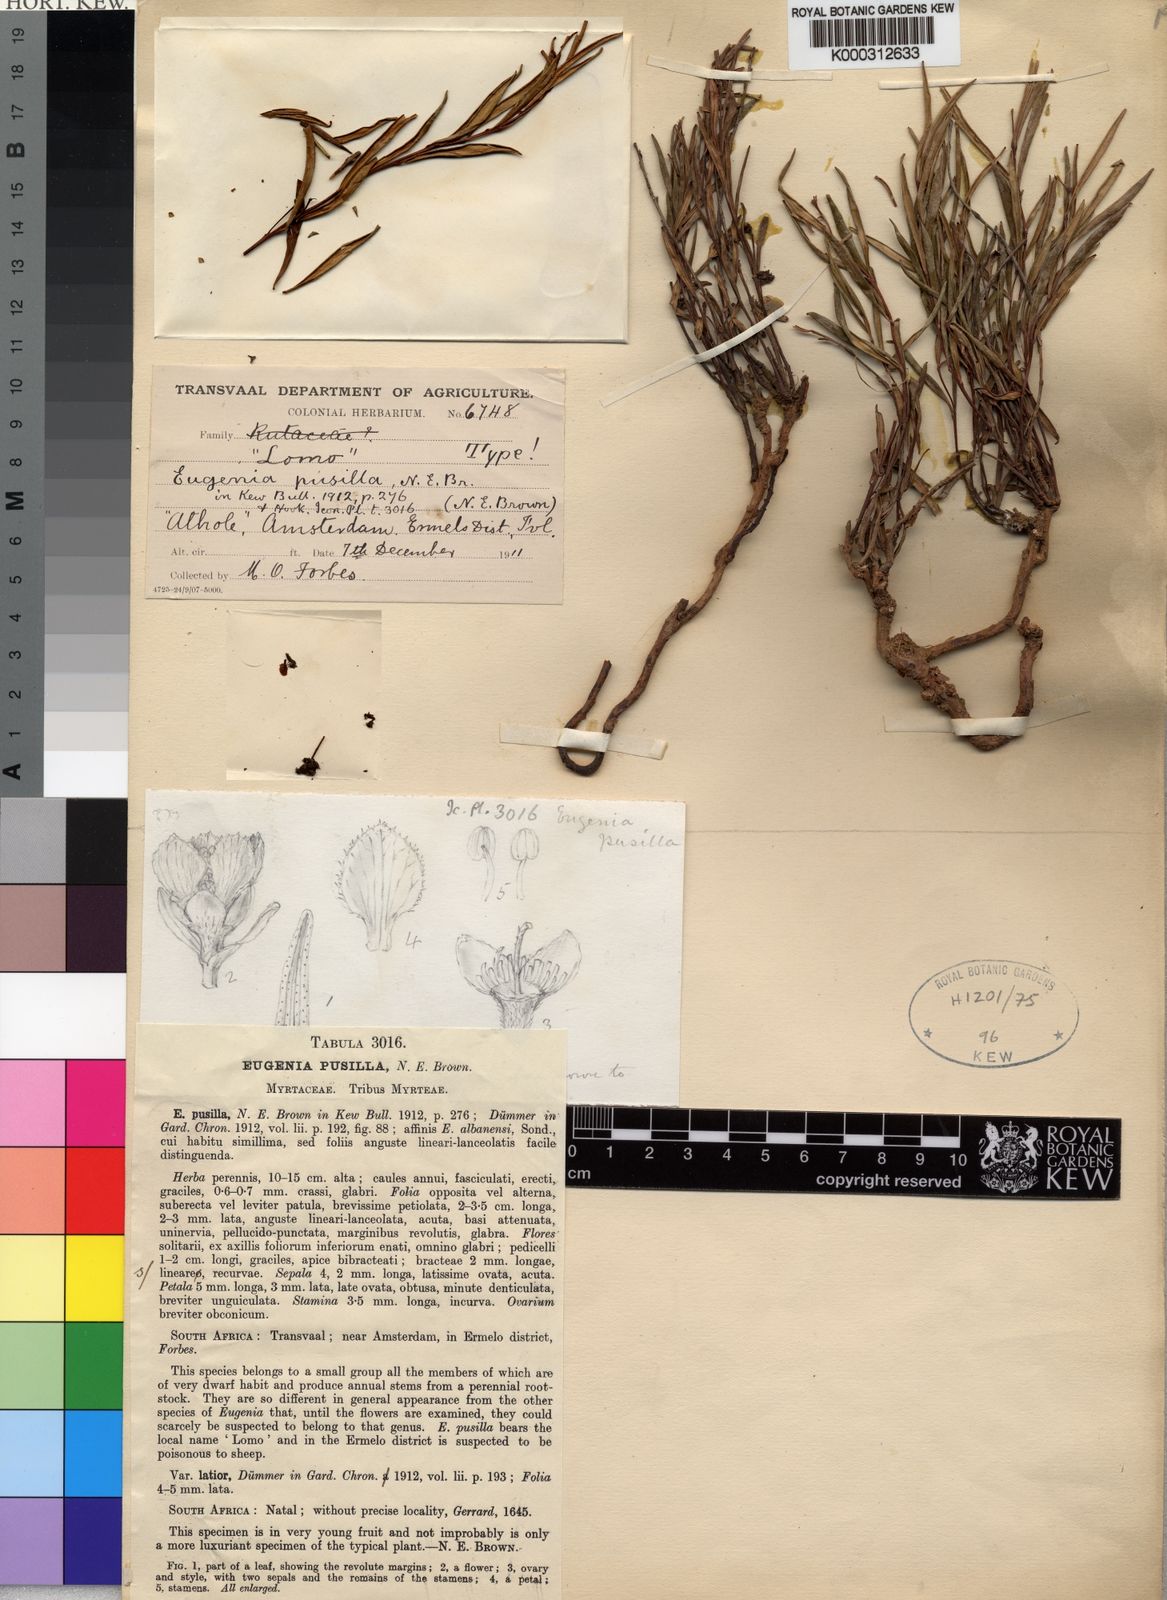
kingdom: Plantae
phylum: Tracheophyta
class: Magnoliopsida
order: Myrtales
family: Myrtaceae
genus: Eugenia
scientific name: Eugenia pusilla
